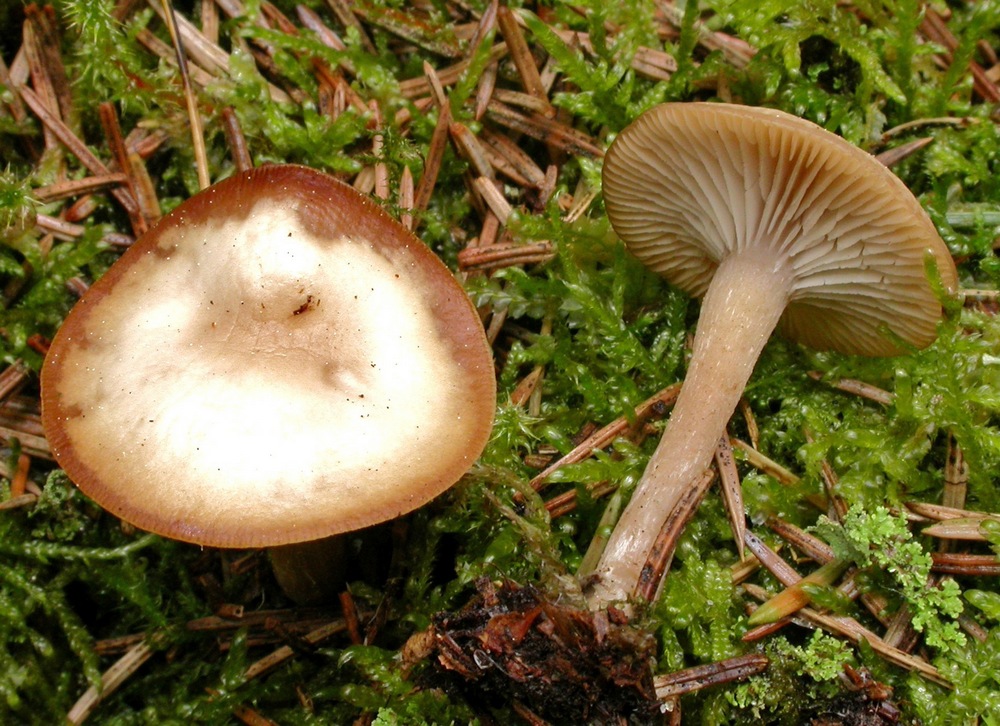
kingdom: Fungi
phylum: Basidiomycota
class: Agaricomycetes
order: Agaricales
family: Tricholomataceae
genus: Clitocybe
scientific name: Clitocybe fragrans
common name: vellugtende tragthat
